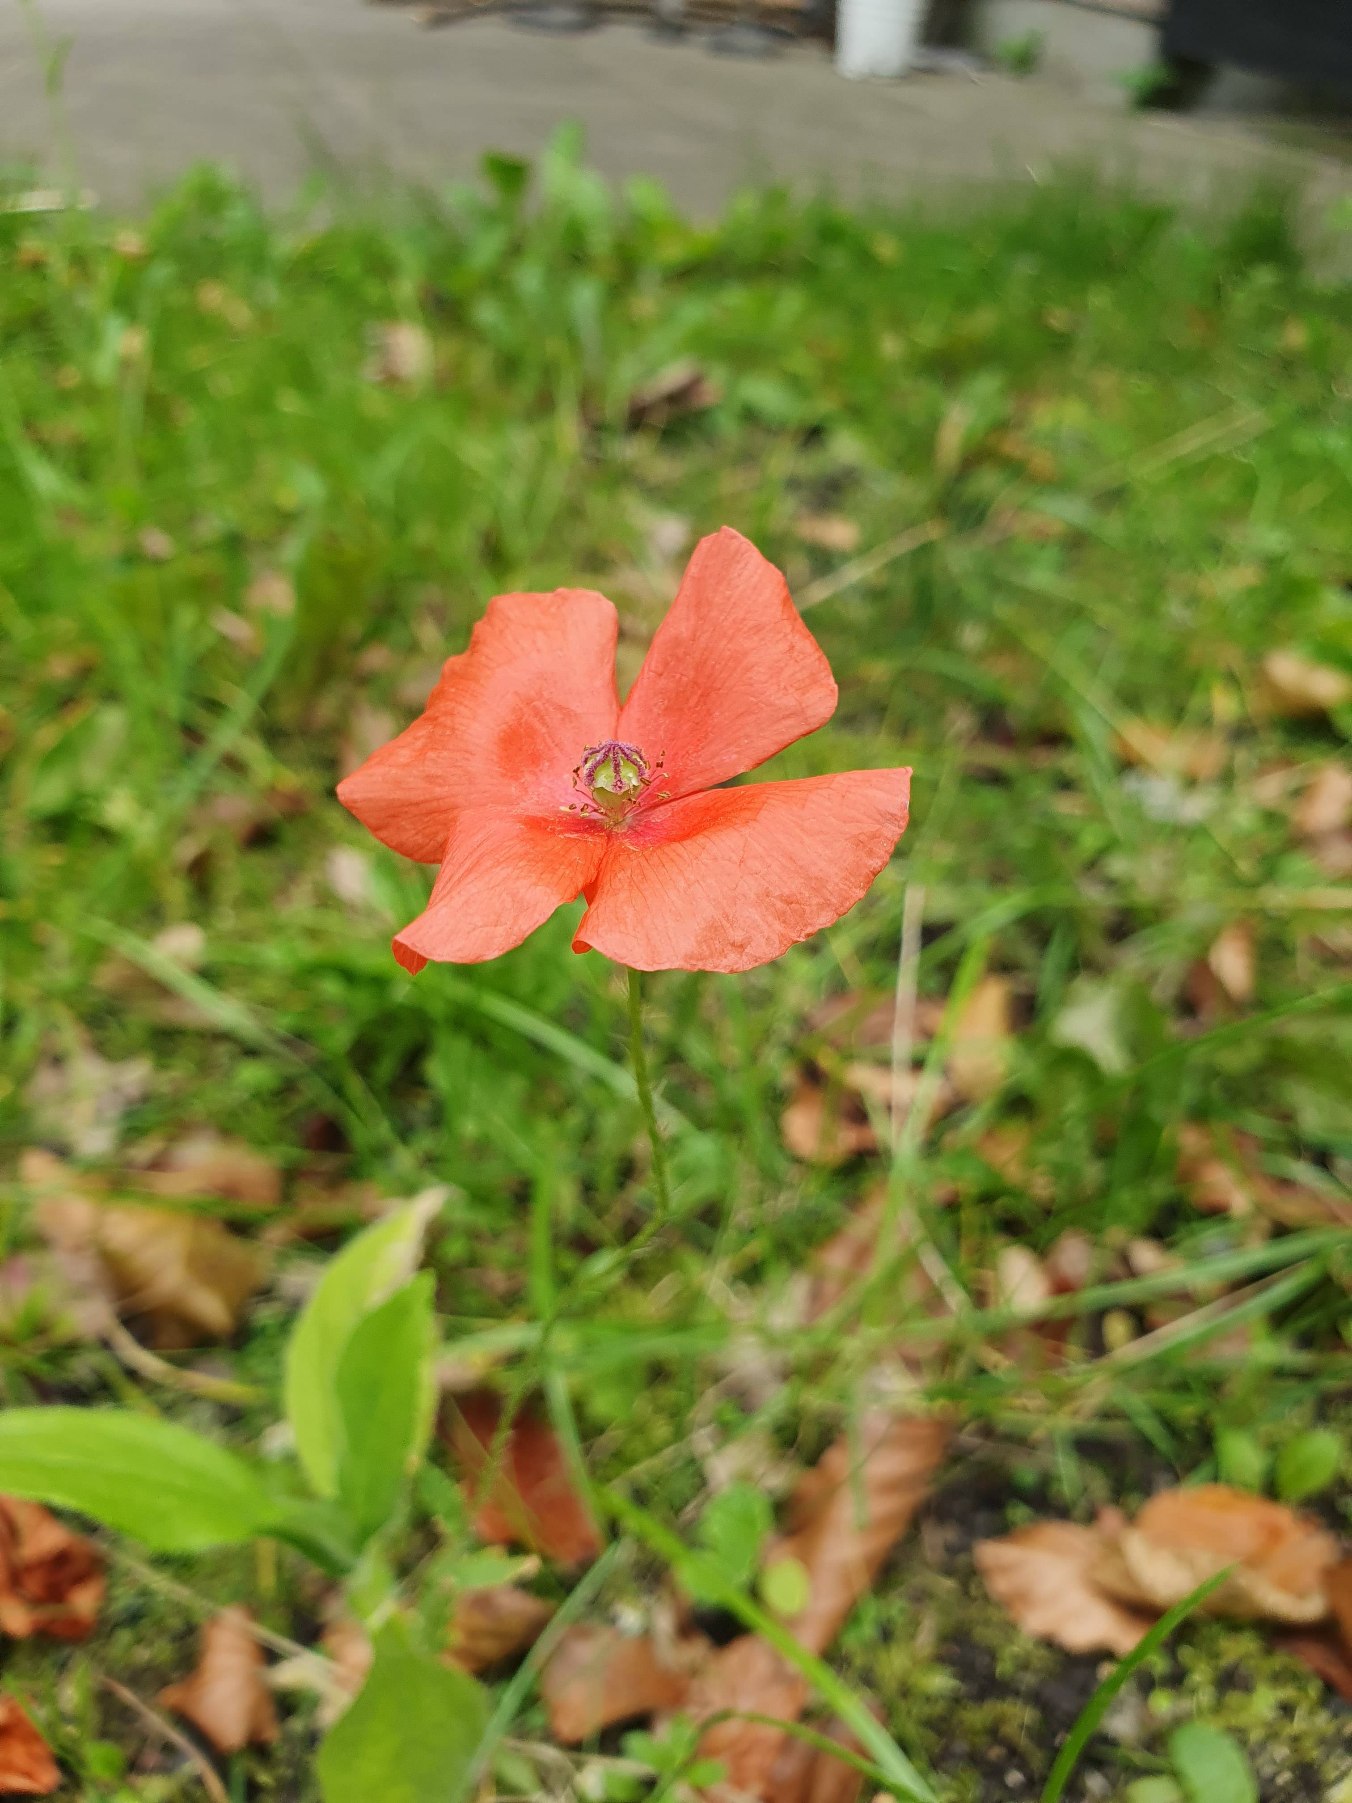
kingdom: Plantae
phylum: Tracheophyta
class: Magnoliopsida
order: Ranunculales
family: Papaveraceae
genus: Papaver
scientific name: Papaver dubium
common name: Gærde-valmue
